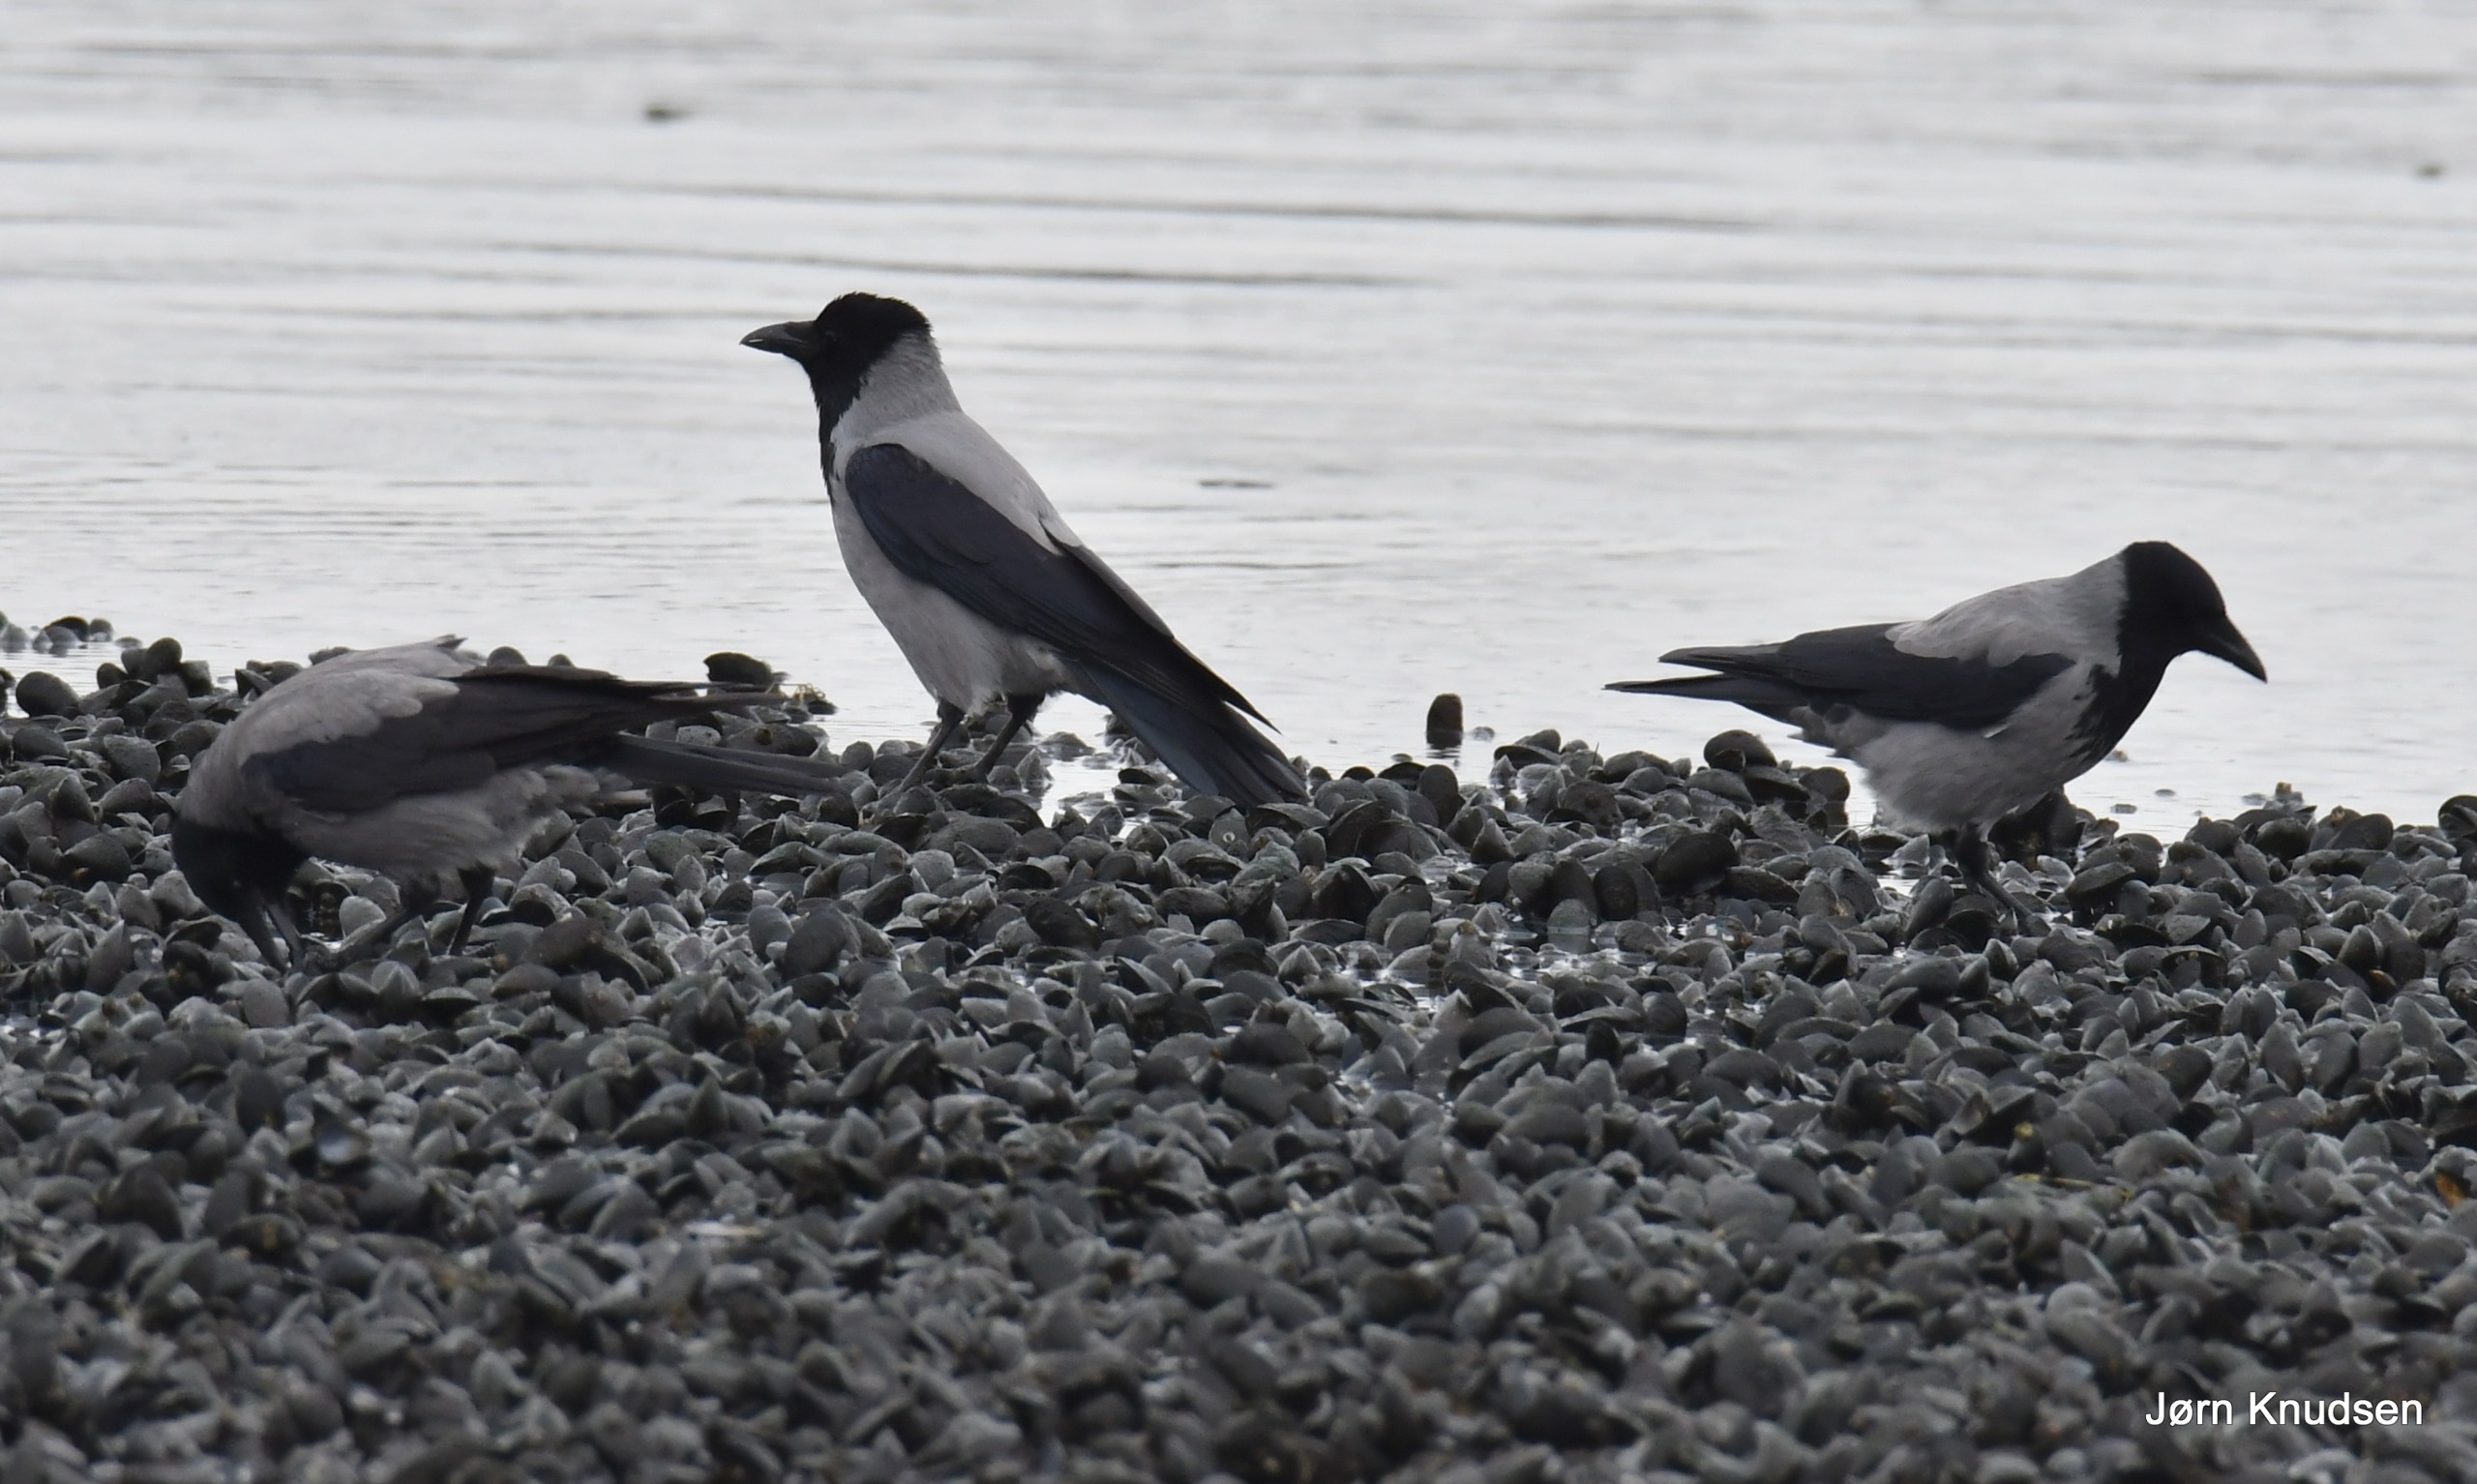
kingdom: Animalia
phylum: Chordata
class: Aves
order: Passeriformes
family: Corvidae
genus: Corvus
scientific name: Corvus cornix
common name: Gråkrage
